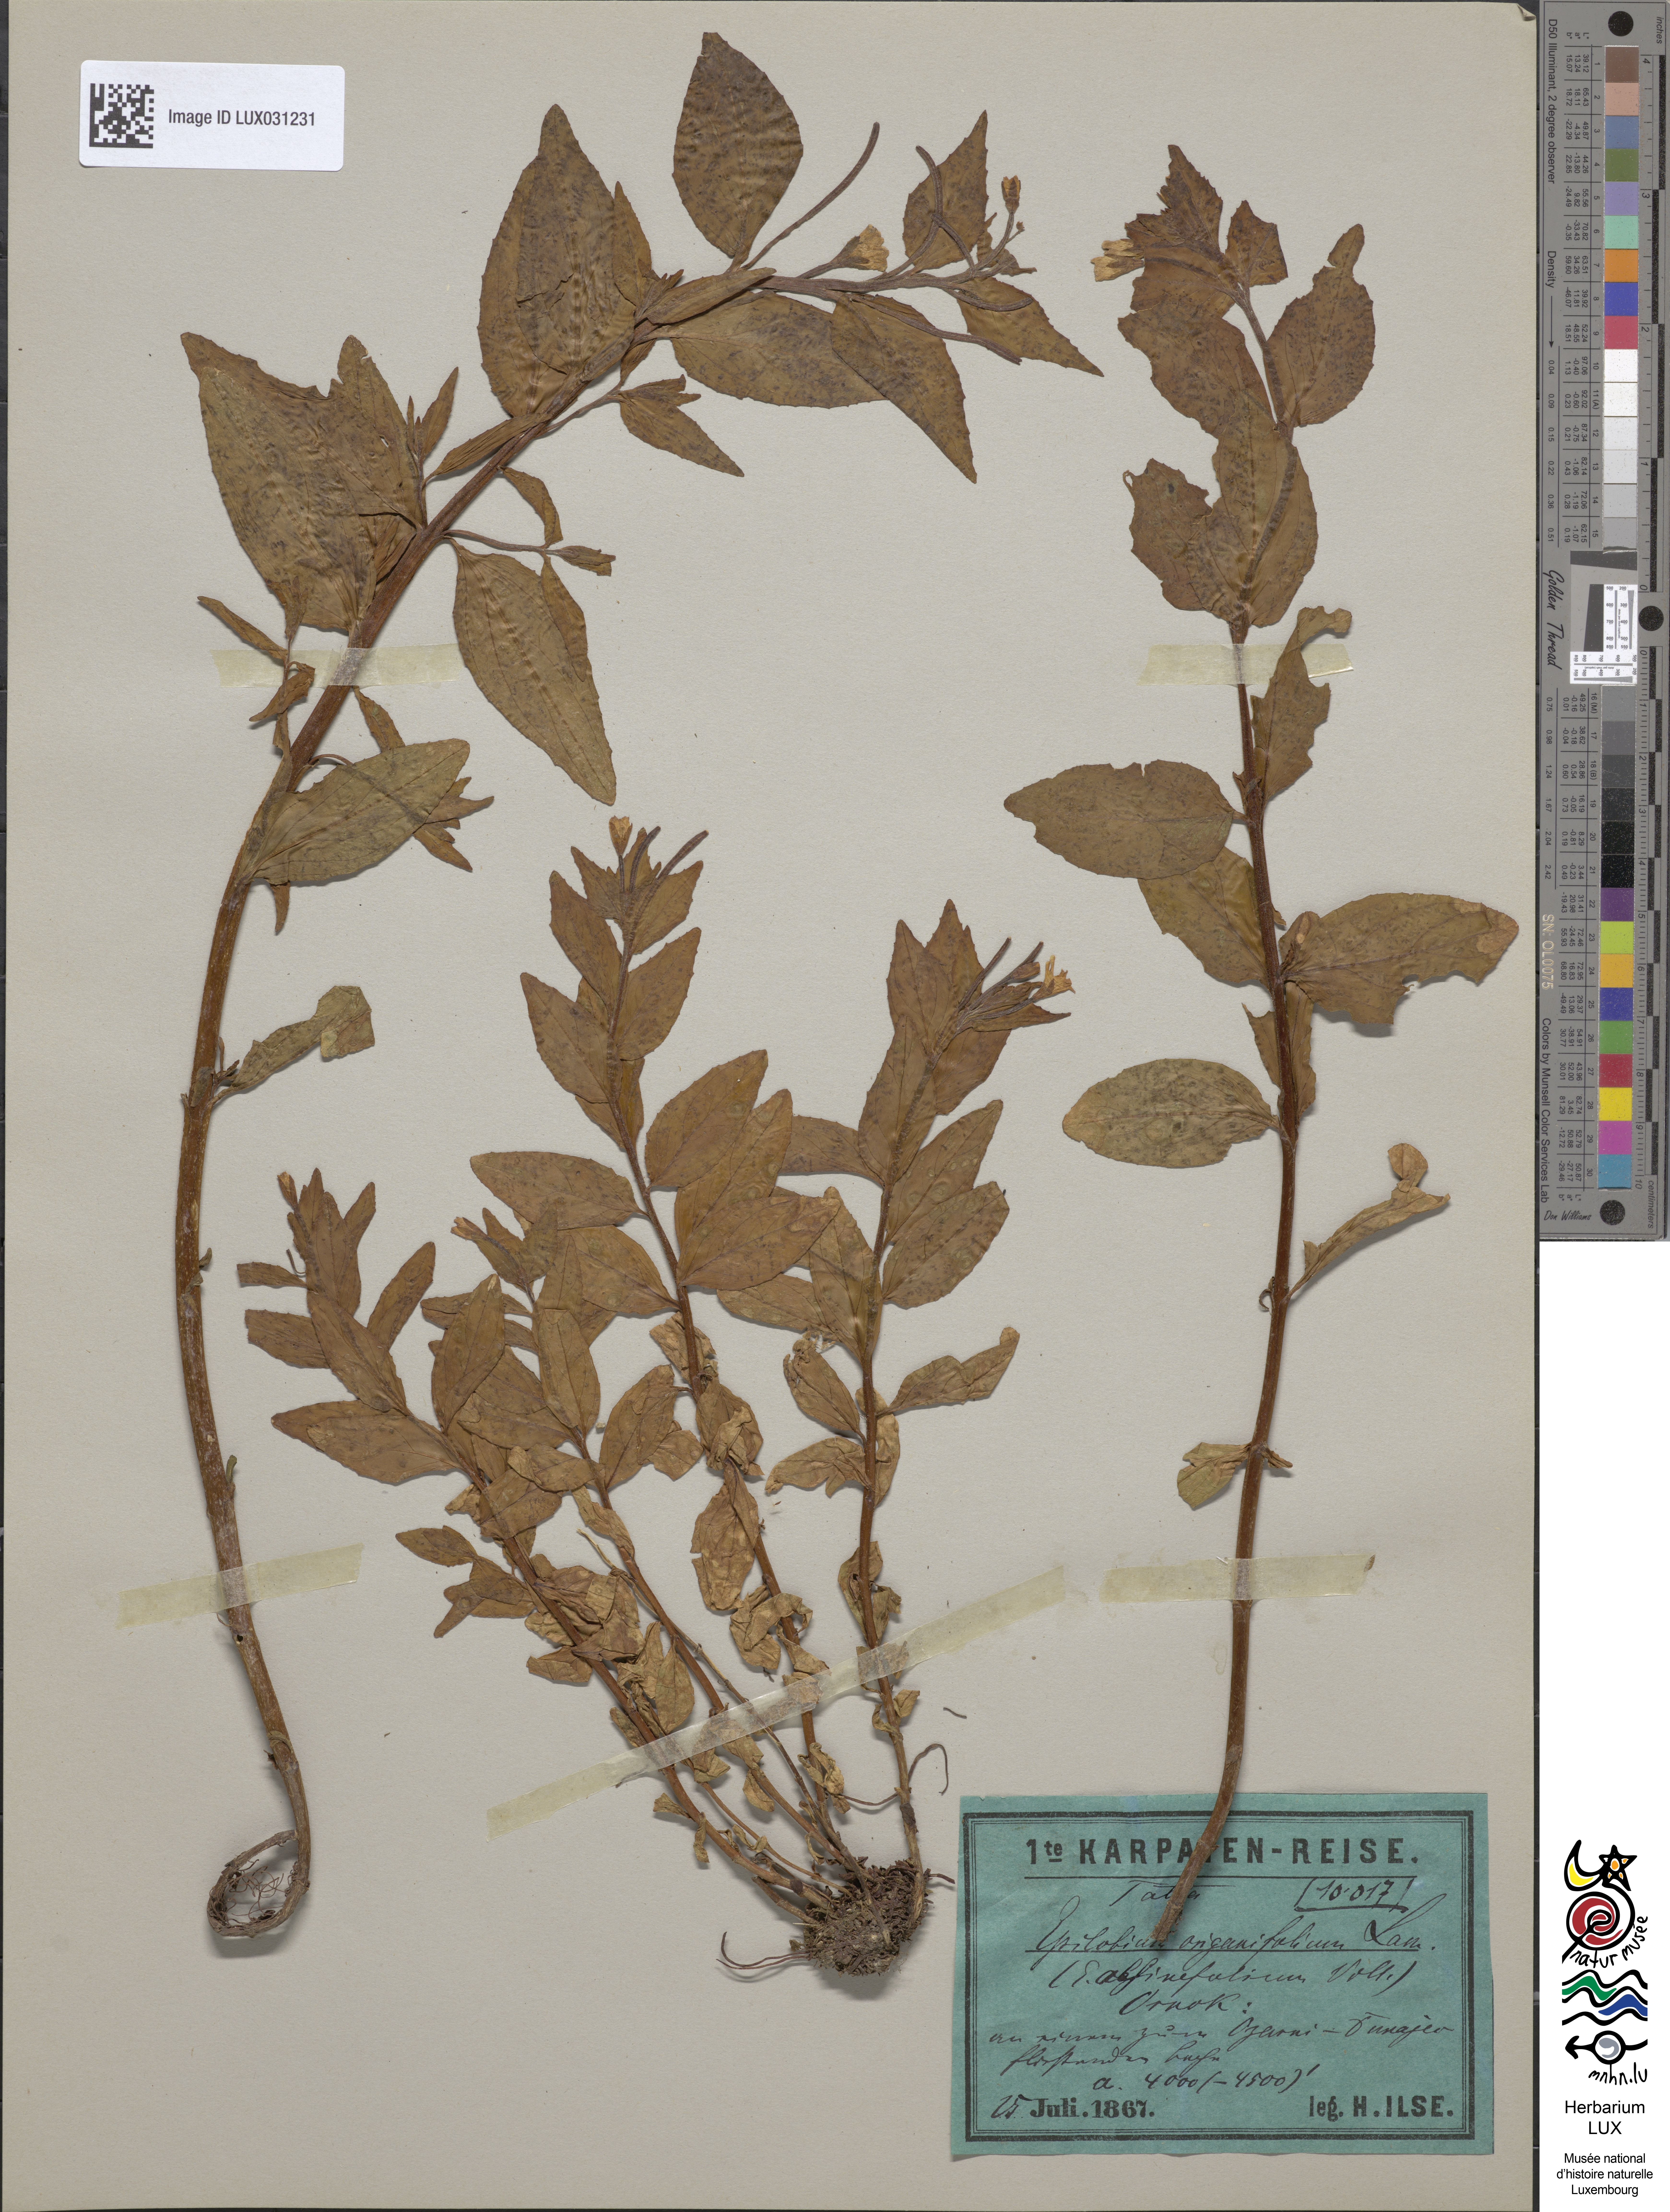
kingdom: Plantae
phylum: Tracheophyta
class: Magnoliopsida
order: Myrtales
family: Onagraceae
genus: Epilobium
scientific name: Epilobium alsinifolium
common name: Chickweed willowherb
